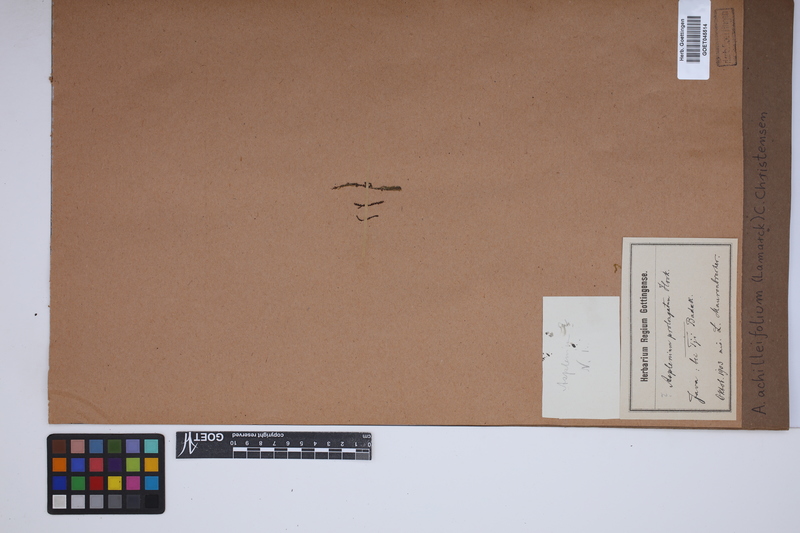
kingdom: Plantae
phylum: Tracheophyta
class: Polypodiopsida
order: Polypodiales
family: Aspleniaceae
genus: Asplenium
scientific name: Asplenium rutifolium
